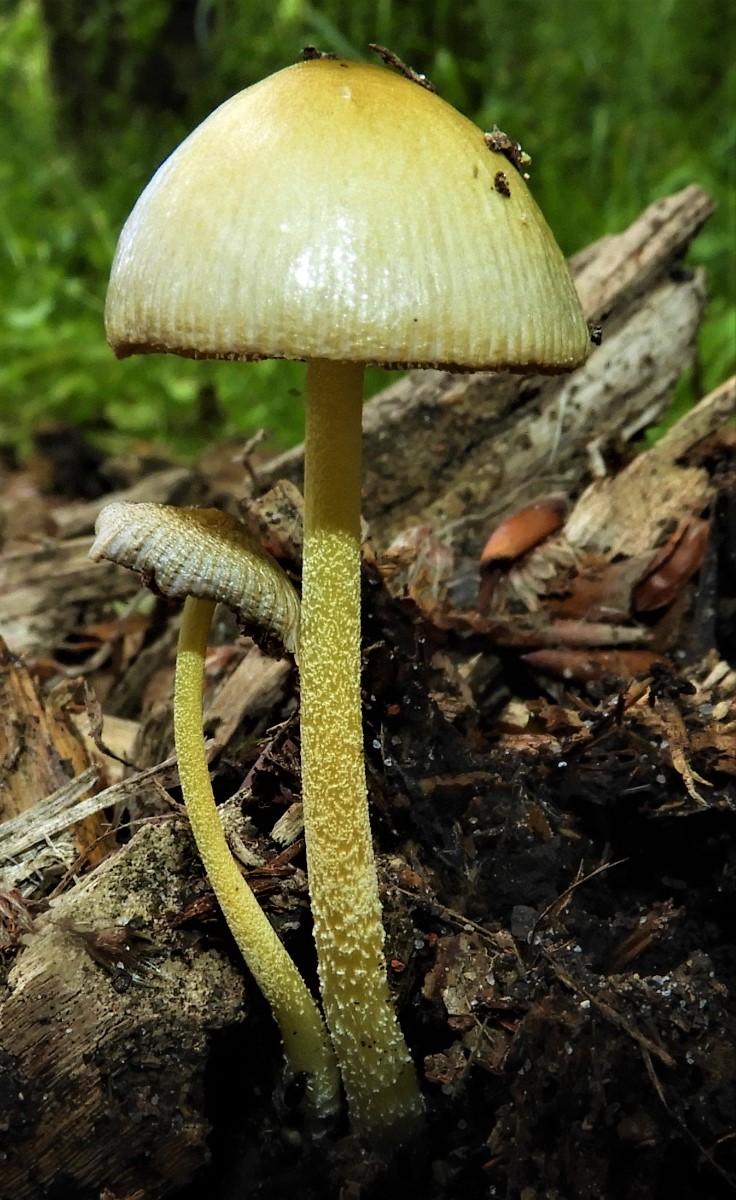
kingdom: Fungi
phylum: Basidiomycota
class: Agaricomycetes
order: Agaricales
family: Bolbitiaceae
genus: Bolbitius
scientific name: Bolbitius titubans
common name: almindelig gulhat
